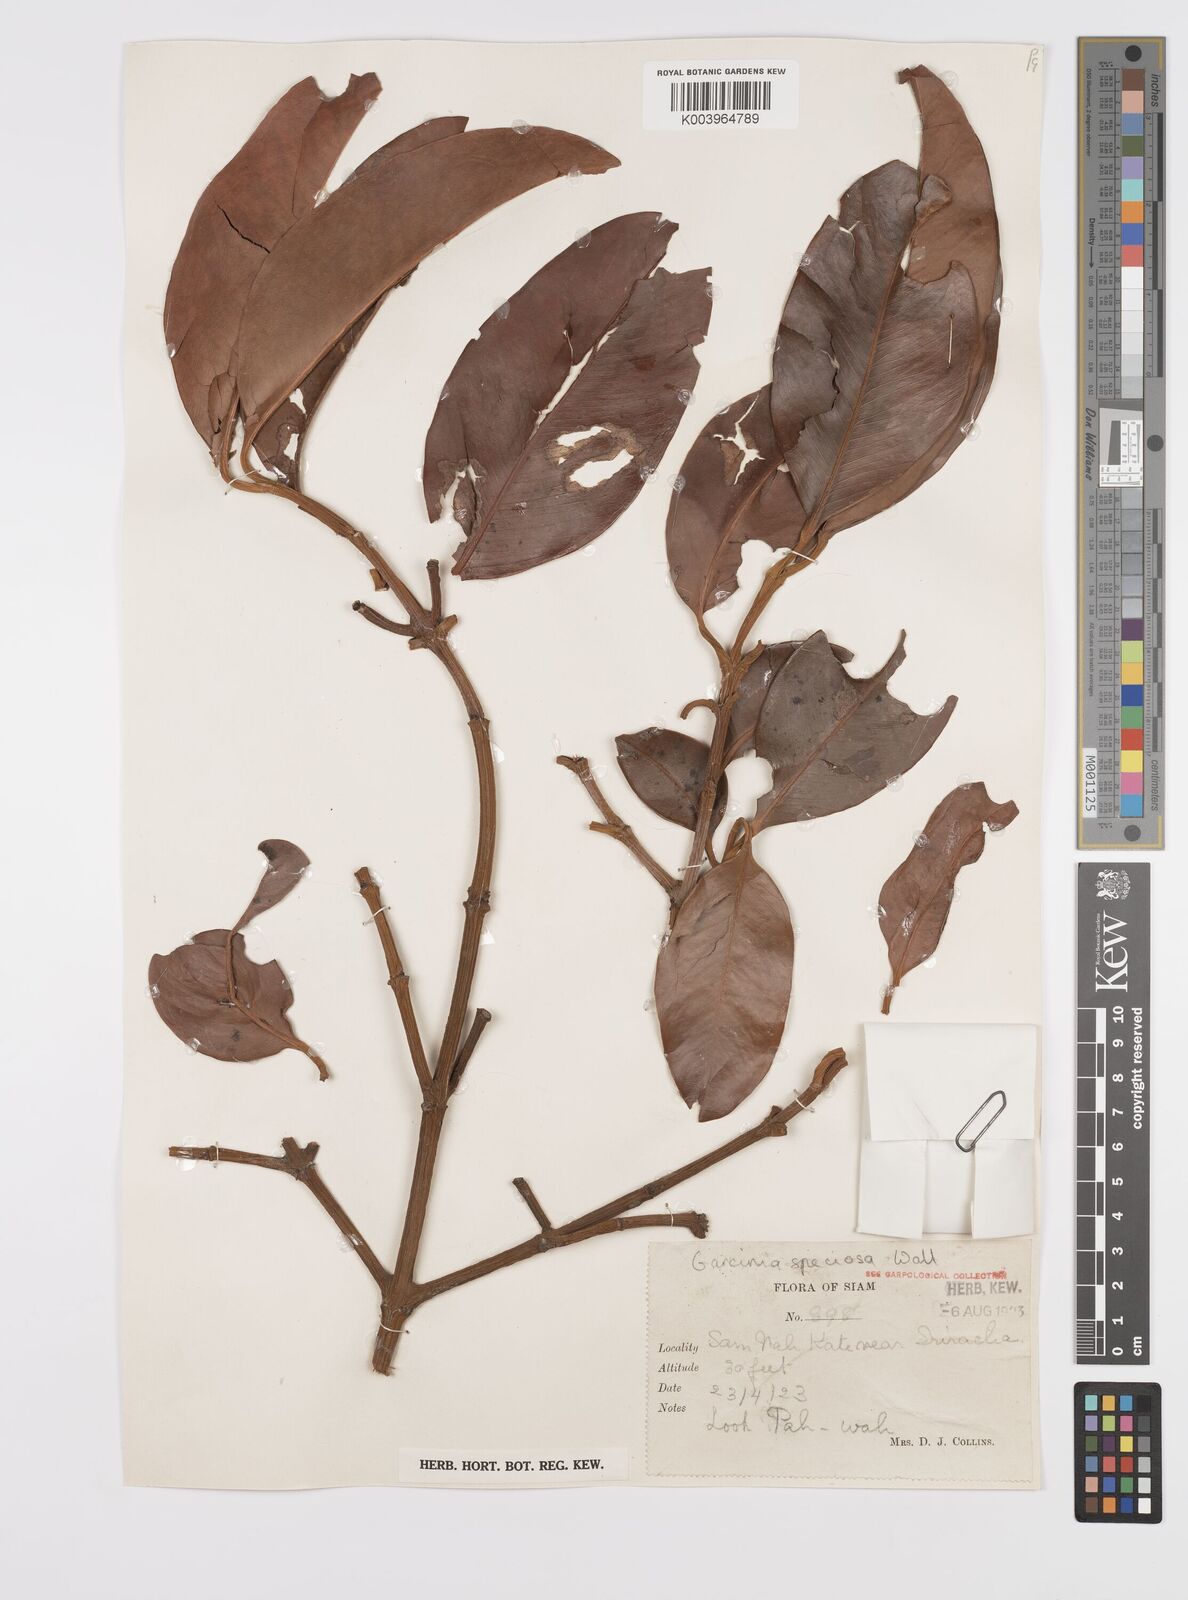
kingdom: Plantae
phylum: Tracheophyta
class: Magnoliopsida
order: Malpighiales
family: Clusiaceae
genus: Garcinia
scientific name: Garcinia celebica
